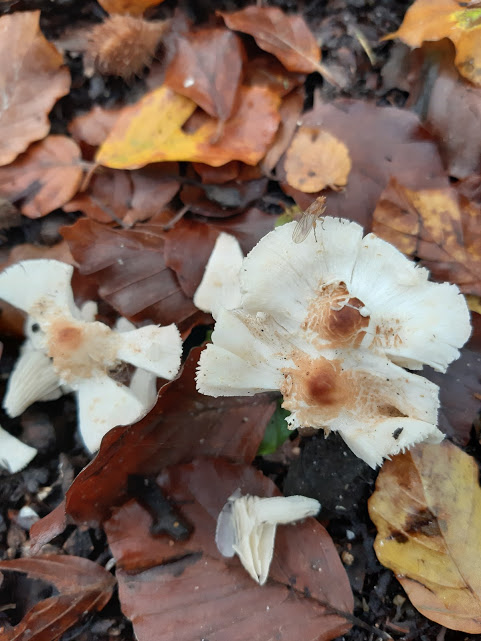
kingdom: Fungi
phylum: Basidiomycota
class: Agaricomycetes
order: Agaricales
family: Agaricaceae
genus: Lepiota
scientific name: Lepiota cristata
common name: stinkende parasolhat
